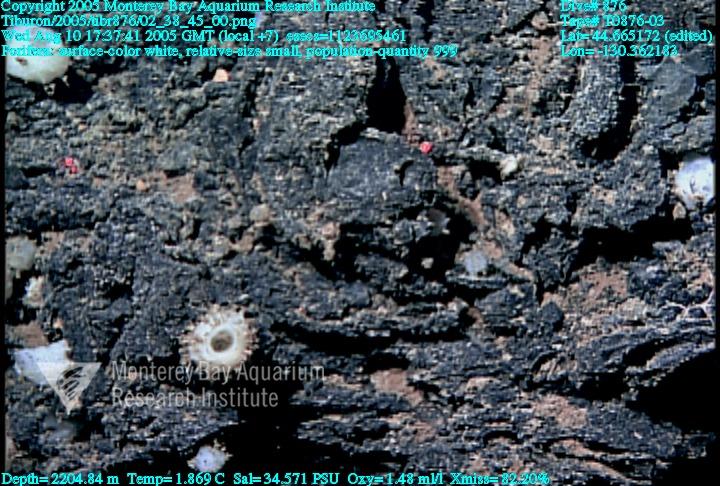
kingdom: Animalia
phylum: Porifera
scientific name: Porifera
